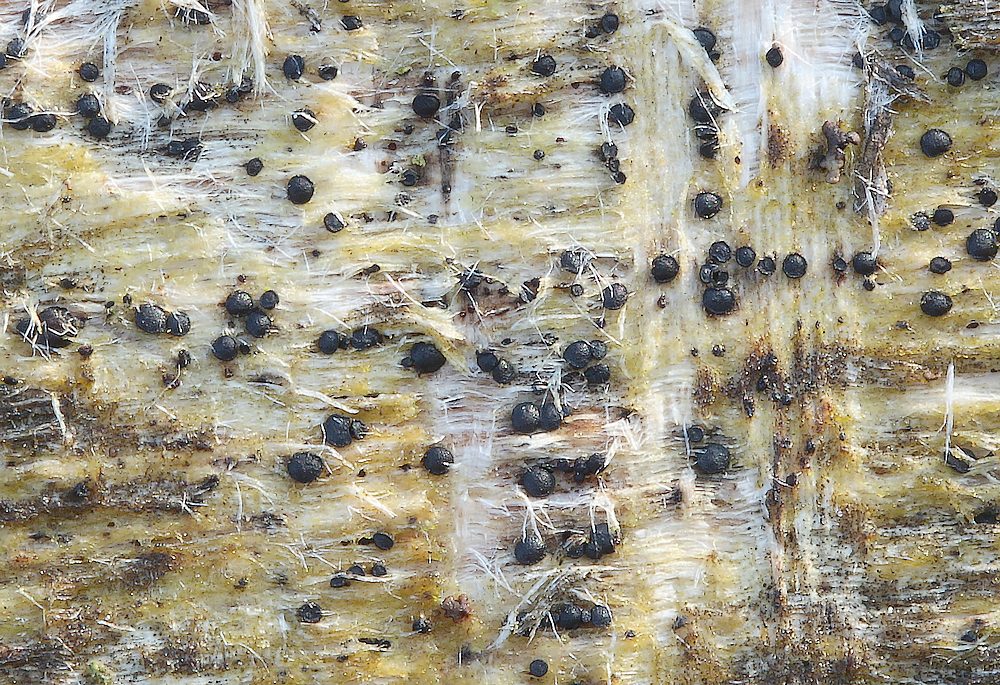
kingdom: Fungi
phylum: Ascomycota
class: Leotiomycetes
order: Helotiales
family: Helotiaceae
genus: Durella
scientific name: Durella
